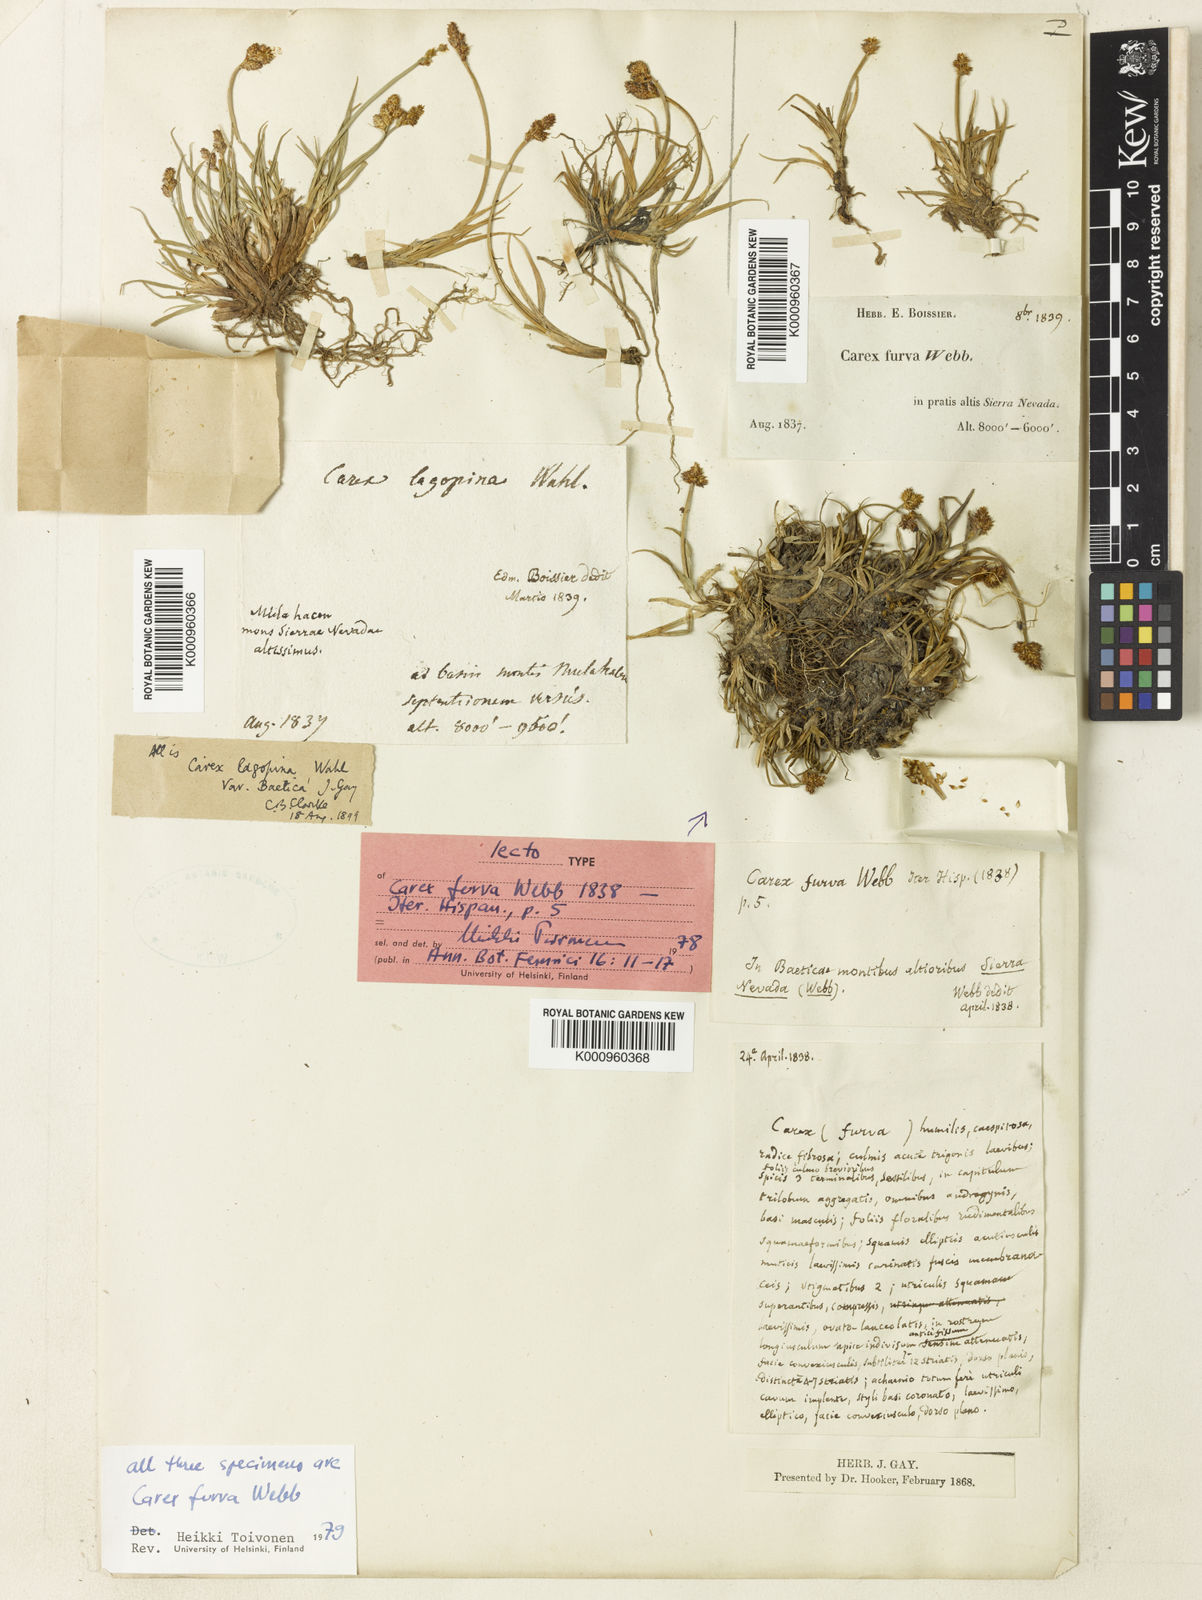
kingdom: Plantae
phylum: Tracheophyta
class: Liliopsida
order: Poales
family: Cyperaceae
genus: Carex
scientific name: Carex furva
